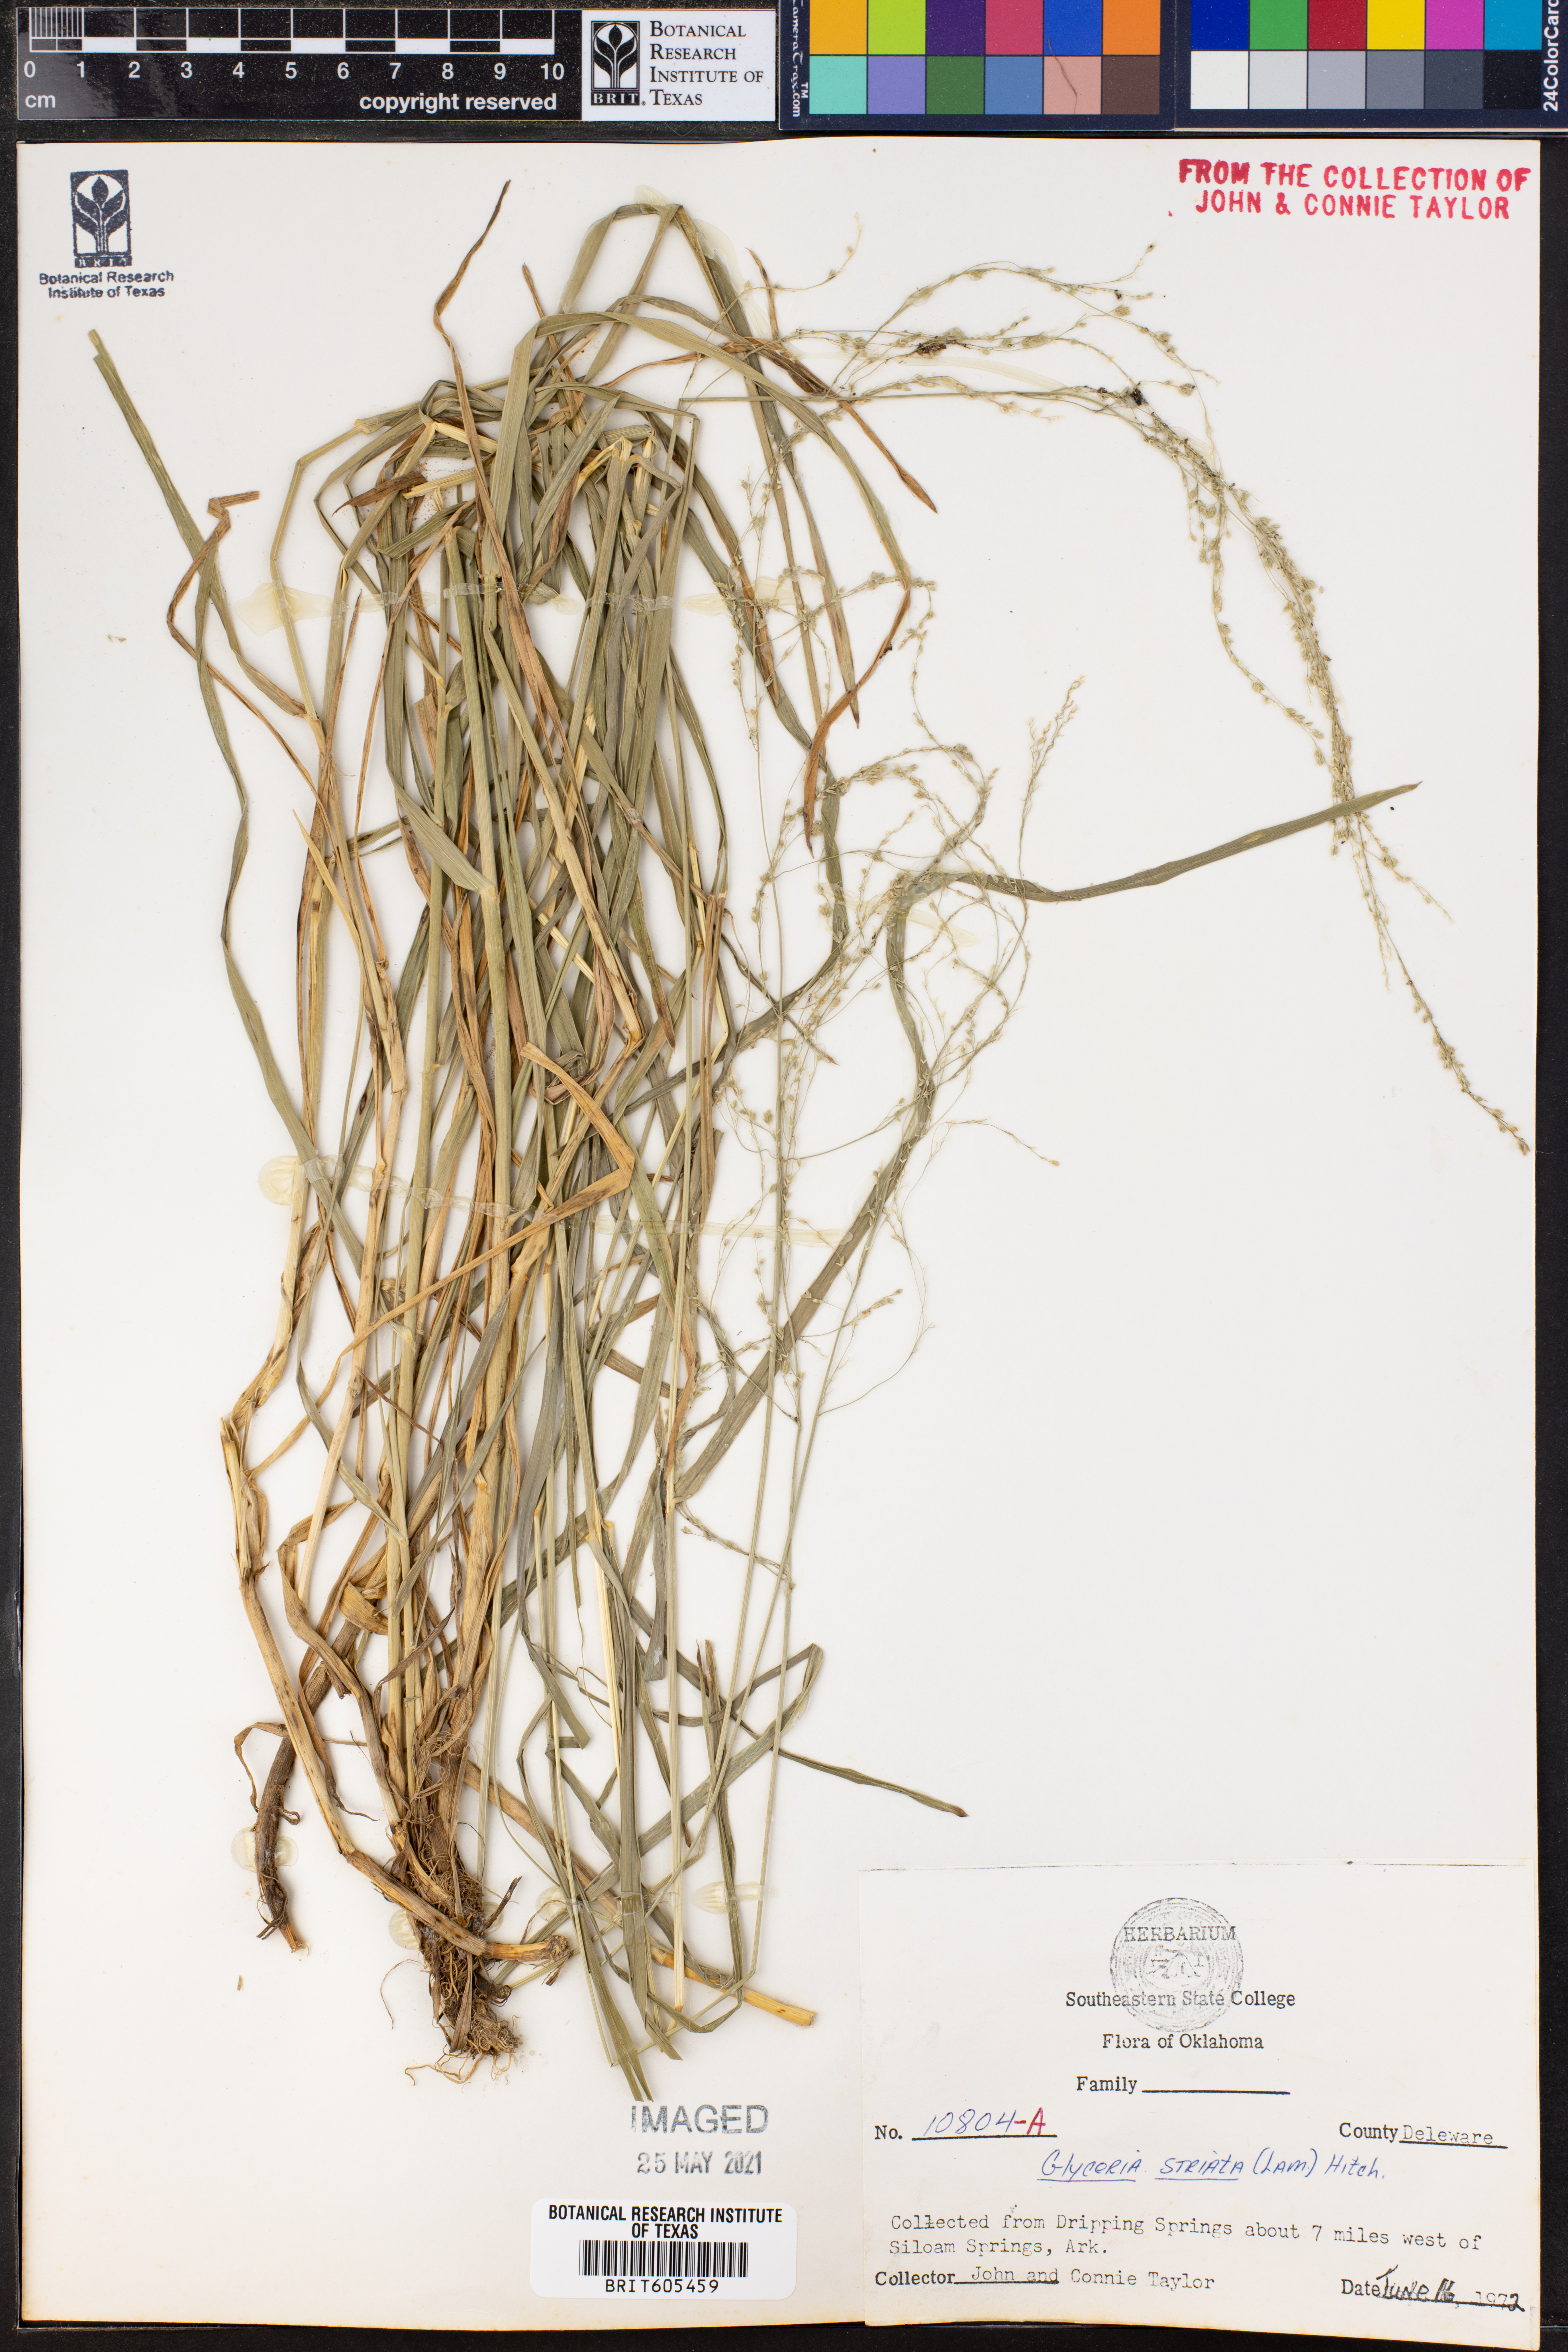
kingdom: Plantae
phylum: Tracheophyta
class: Liliopsida
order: Poales
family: Poaceae
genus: Glyceria
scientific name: Glyceria striata
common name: Fowl manna grass
